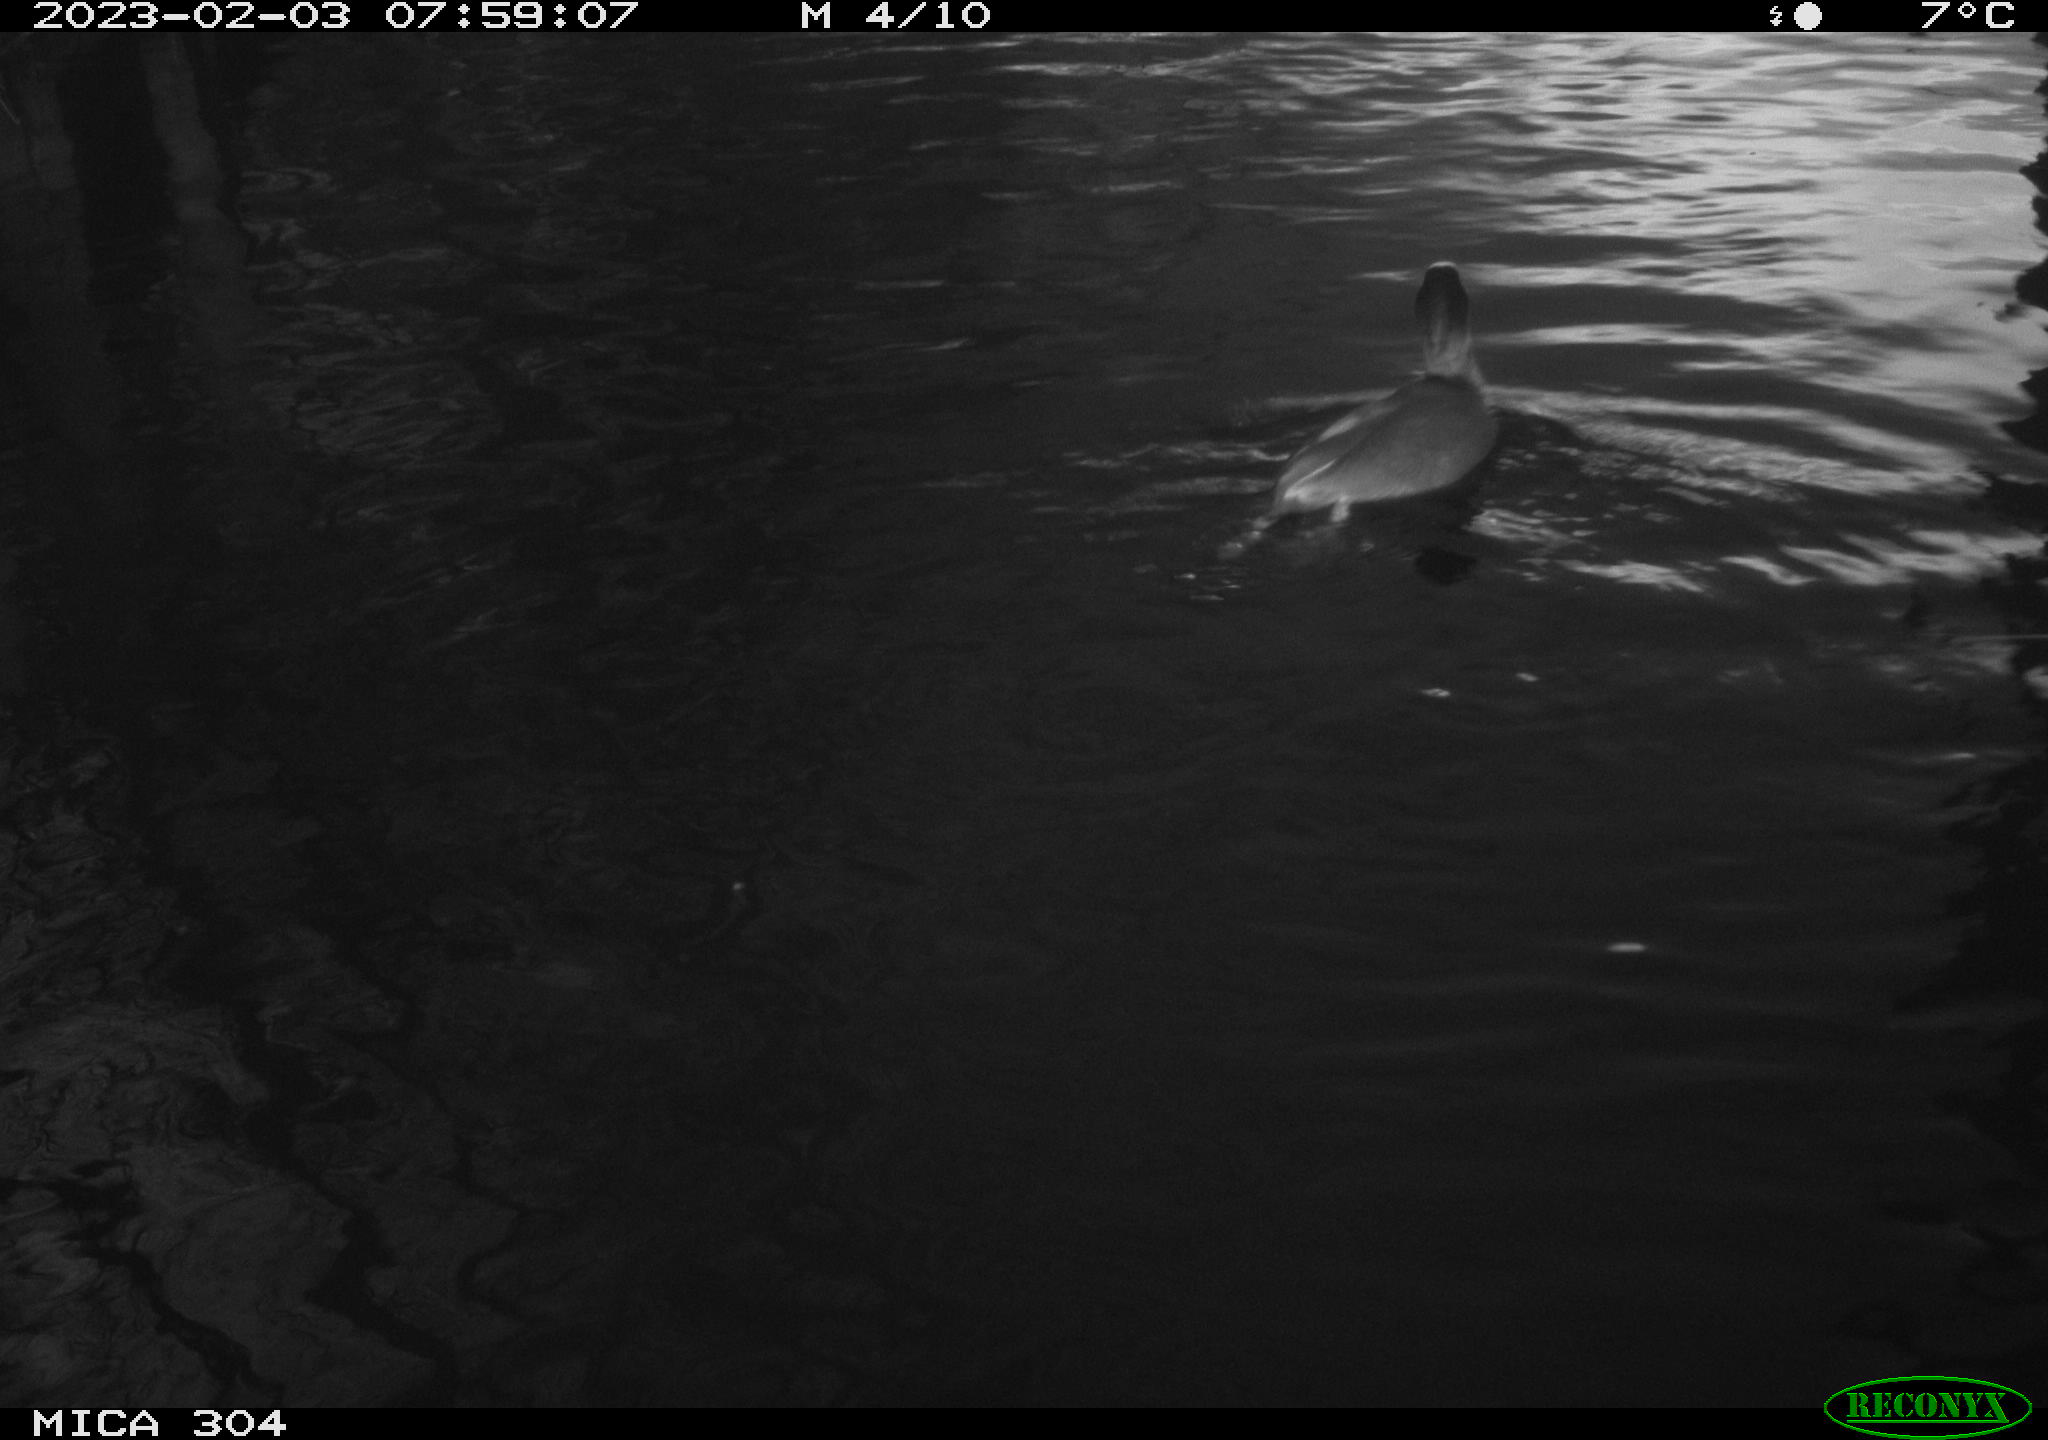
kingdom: Animalia
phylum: Chordata
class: Aves
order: Pelecaniformes
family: Ardeidae
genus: Ardea
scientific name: Ardea cinerea
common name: Grey heron
